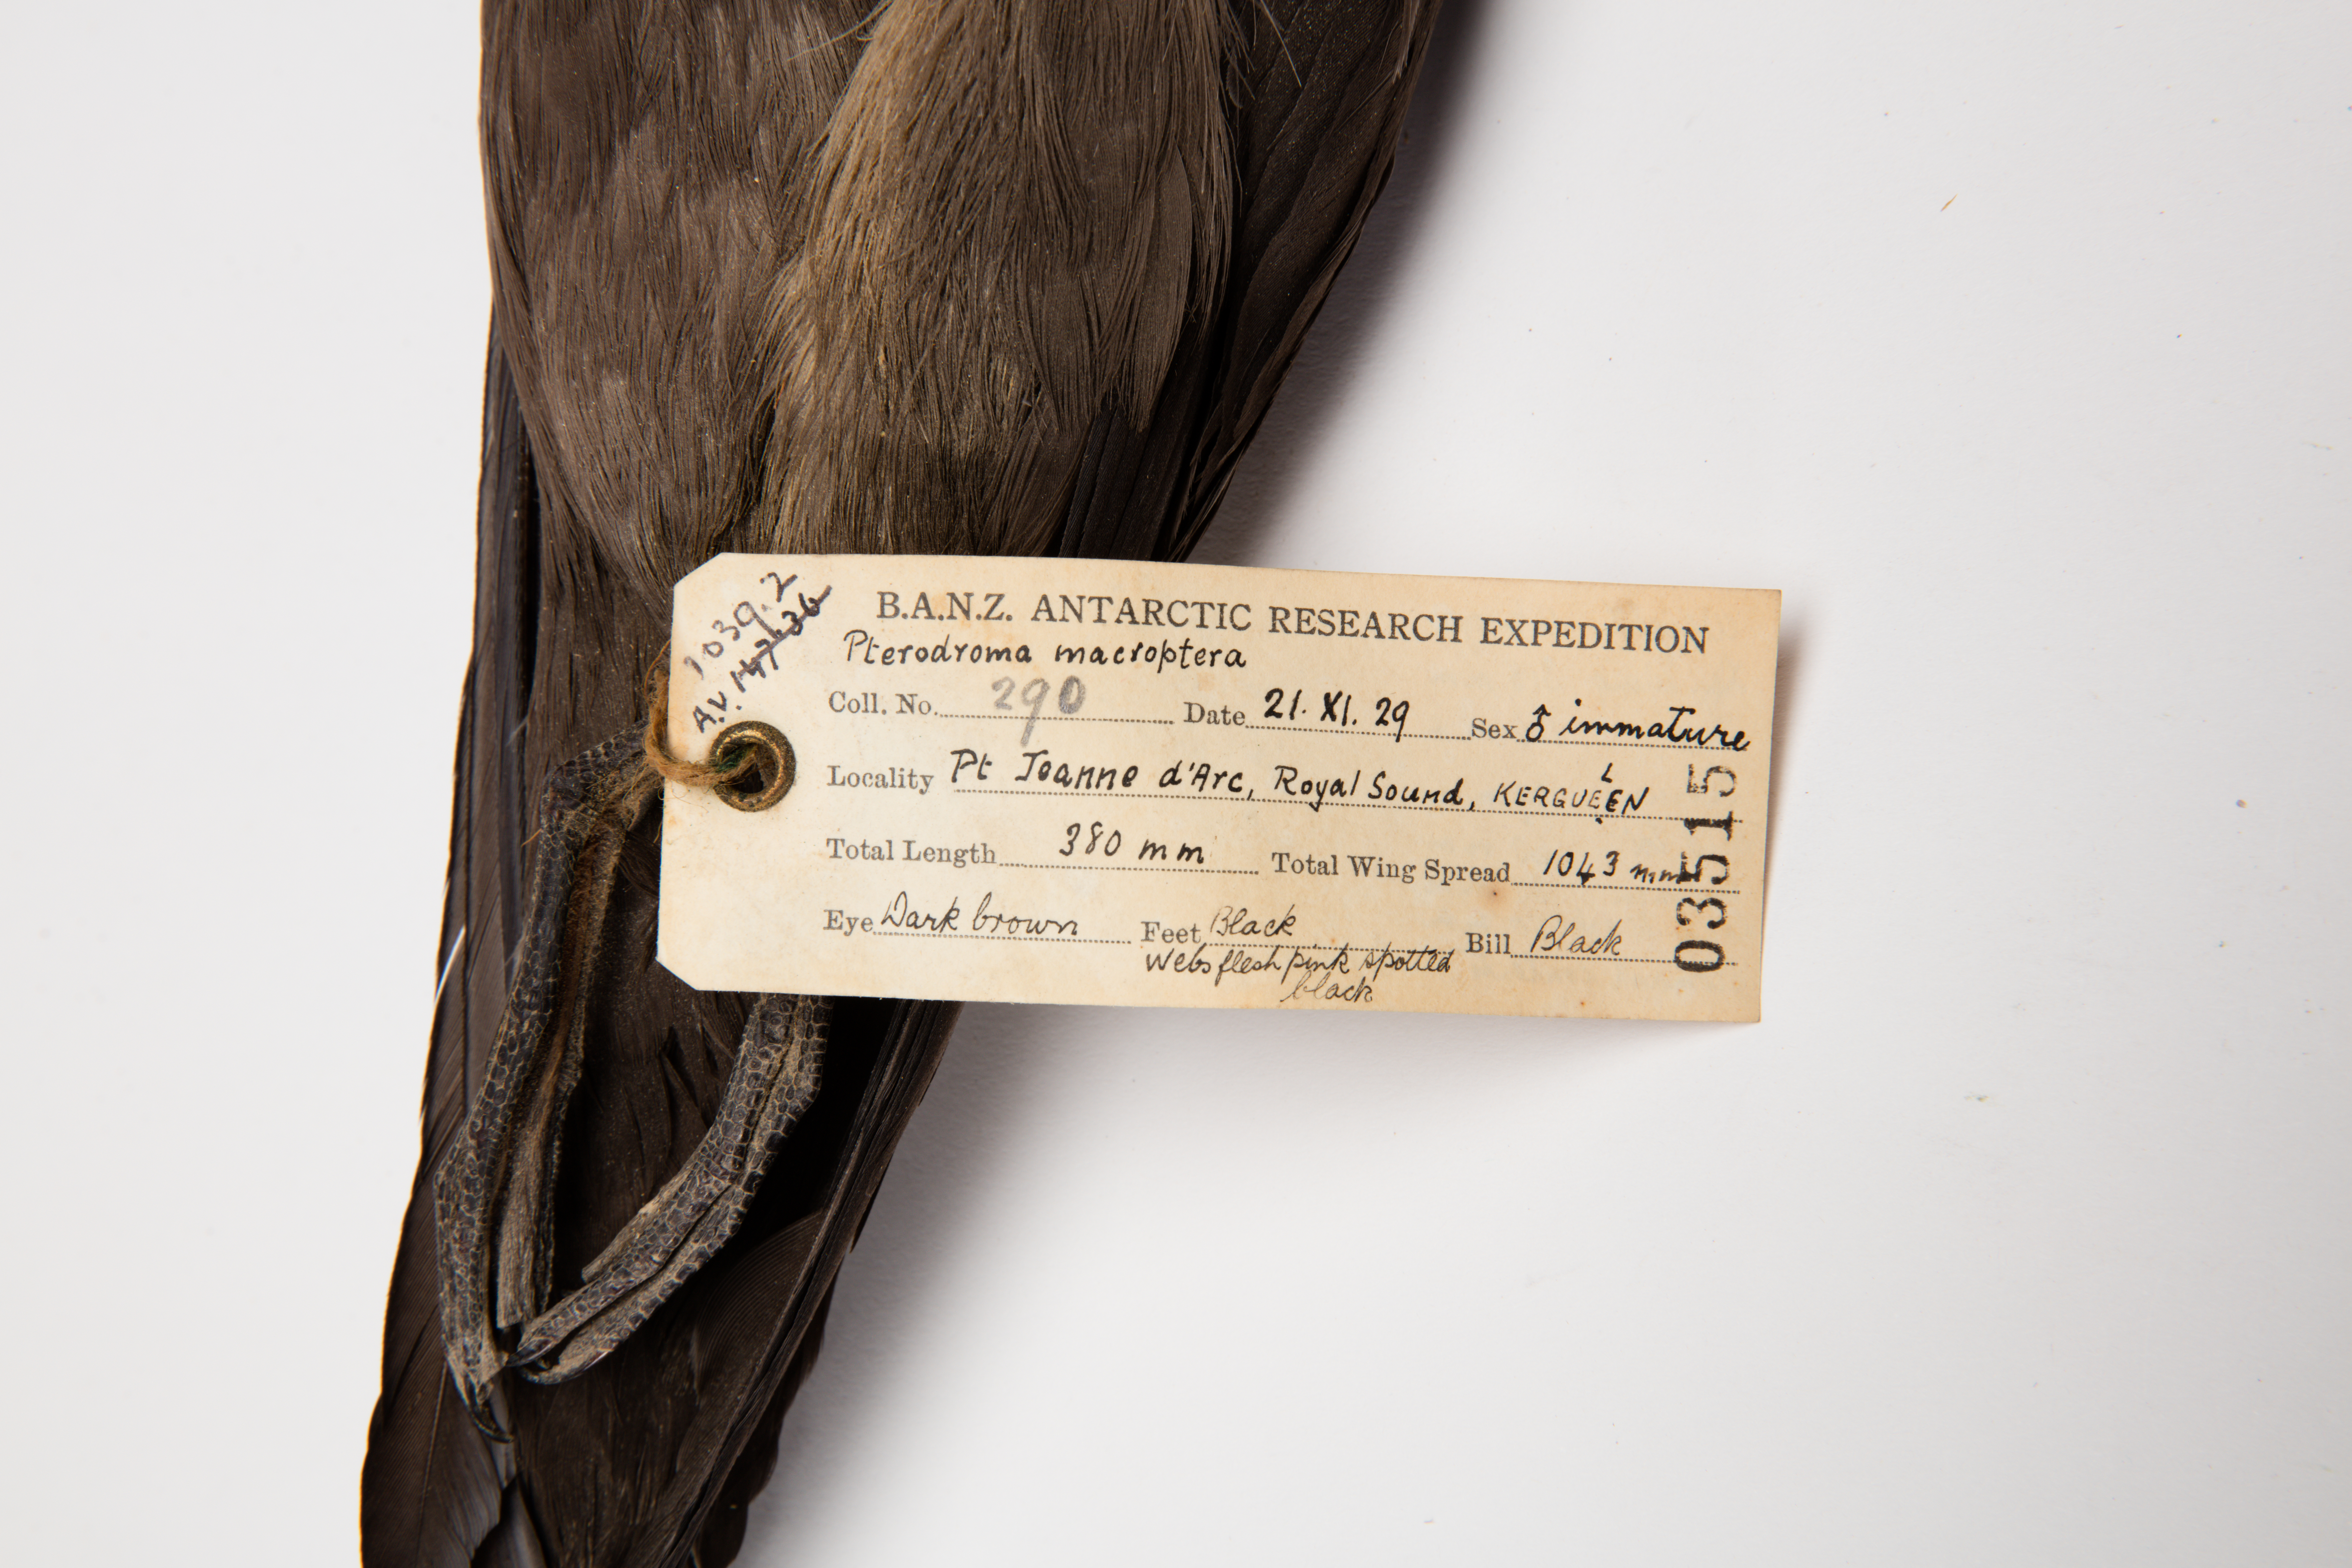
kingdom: Animalia
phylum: Chordata
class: Aves
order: Procellariiformes
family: Procellariidae
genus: Pterodroma
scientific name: Pterodroma macroptera
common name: Great-winged petrel
